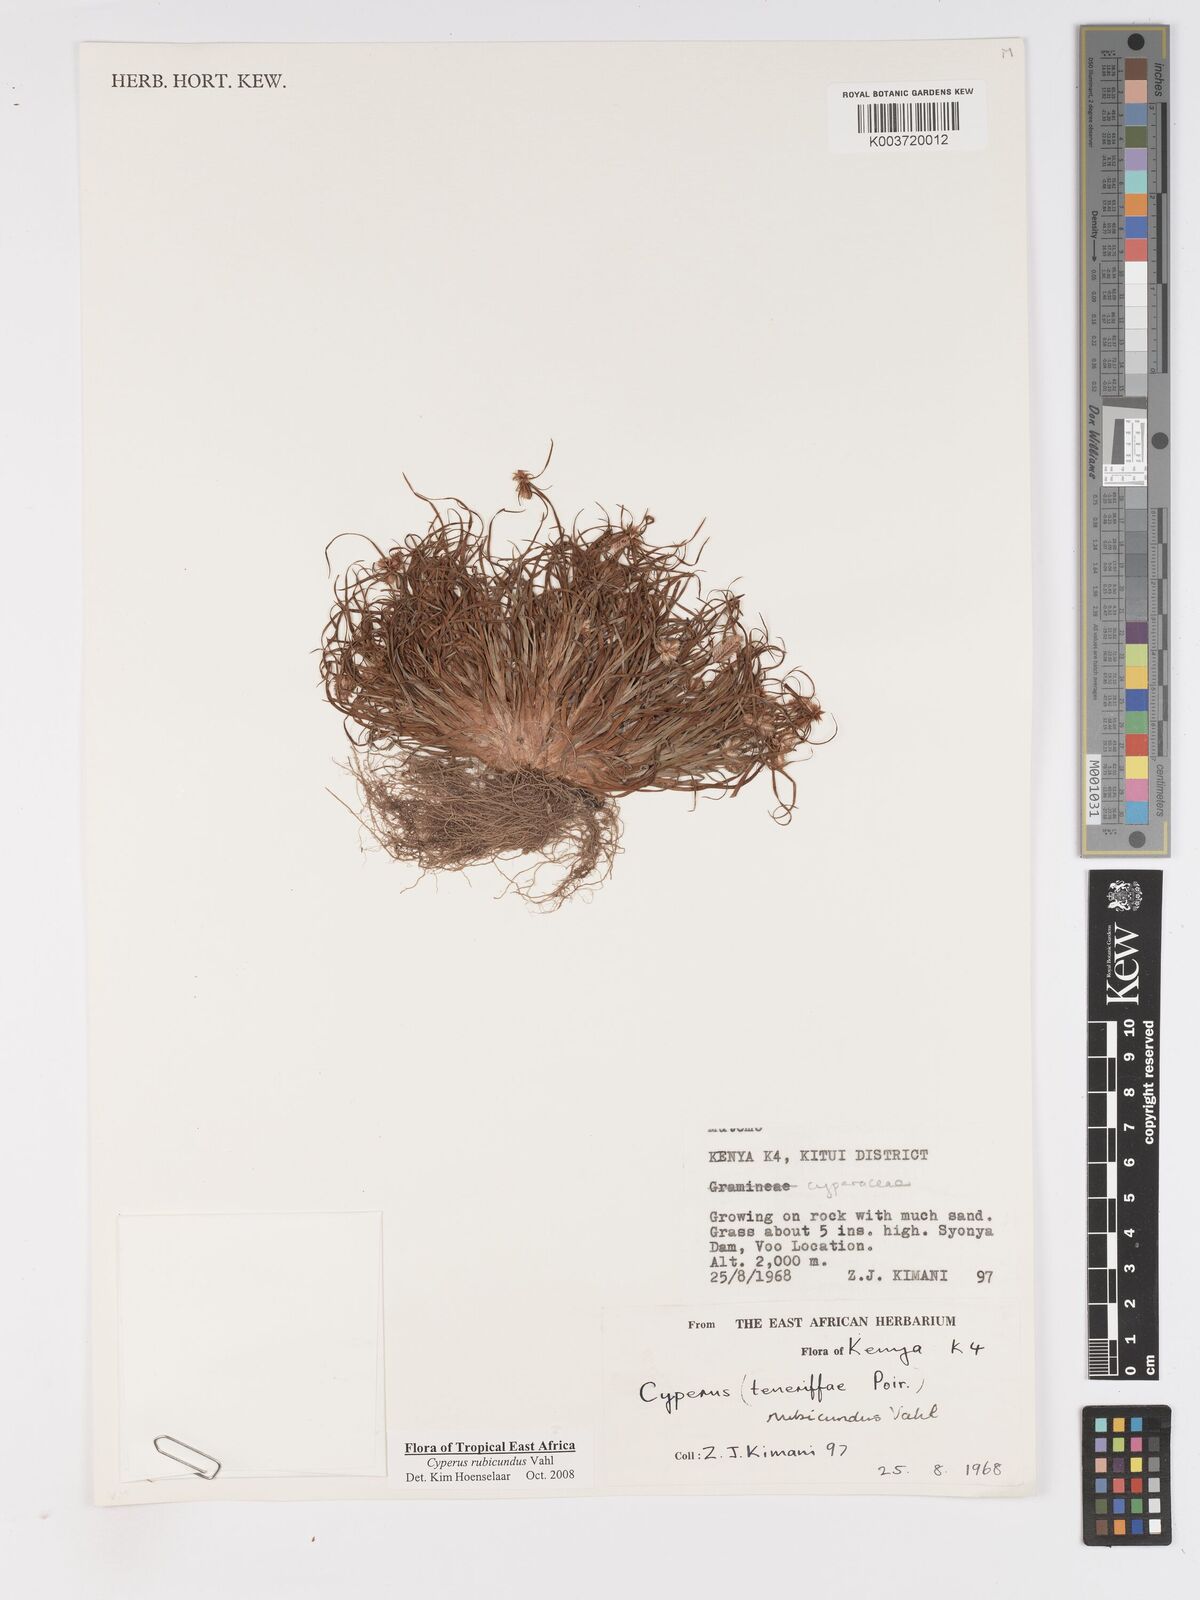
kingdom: Plantae
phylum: Tracheophyta
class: Liliopsida
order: Poales
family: Cyperaceae
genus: Cyperus
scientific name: Cyperus rubicundus
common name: Coco-grass
